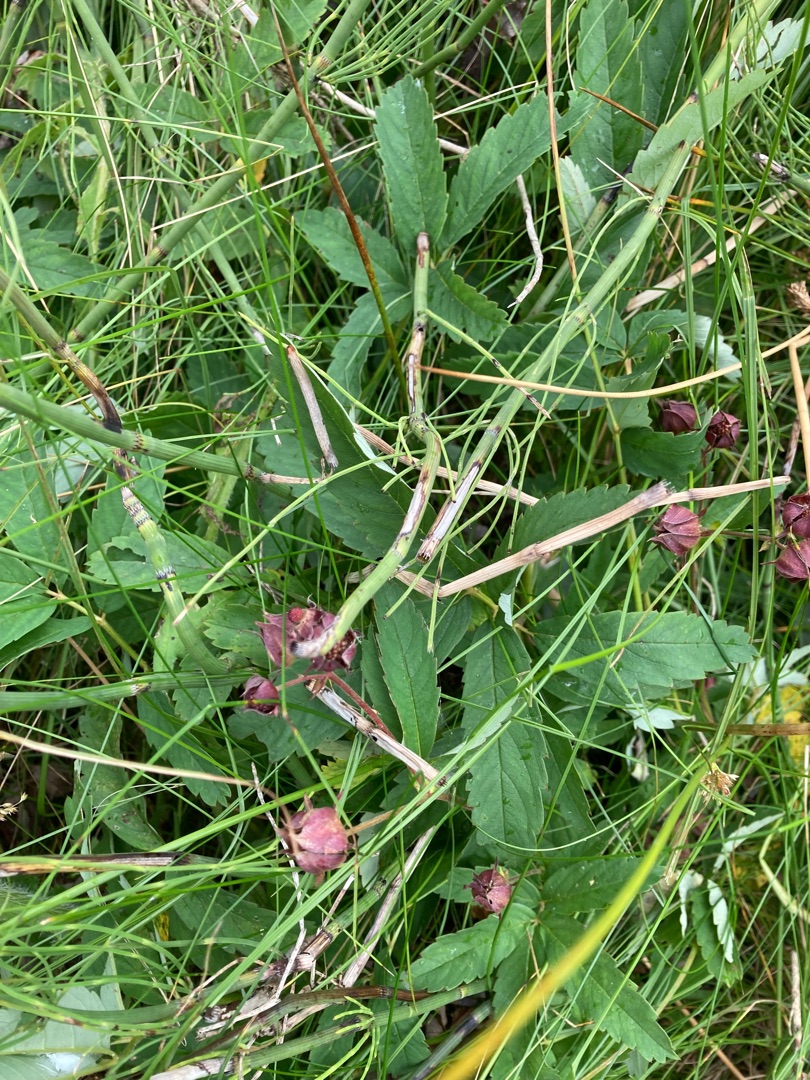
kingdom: Plantae
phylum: Tracheophyta
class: Magnoliopsida
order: Rosales
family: Rosaceae
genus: Comarum
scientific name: Comarum palustre
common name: Kragefod
